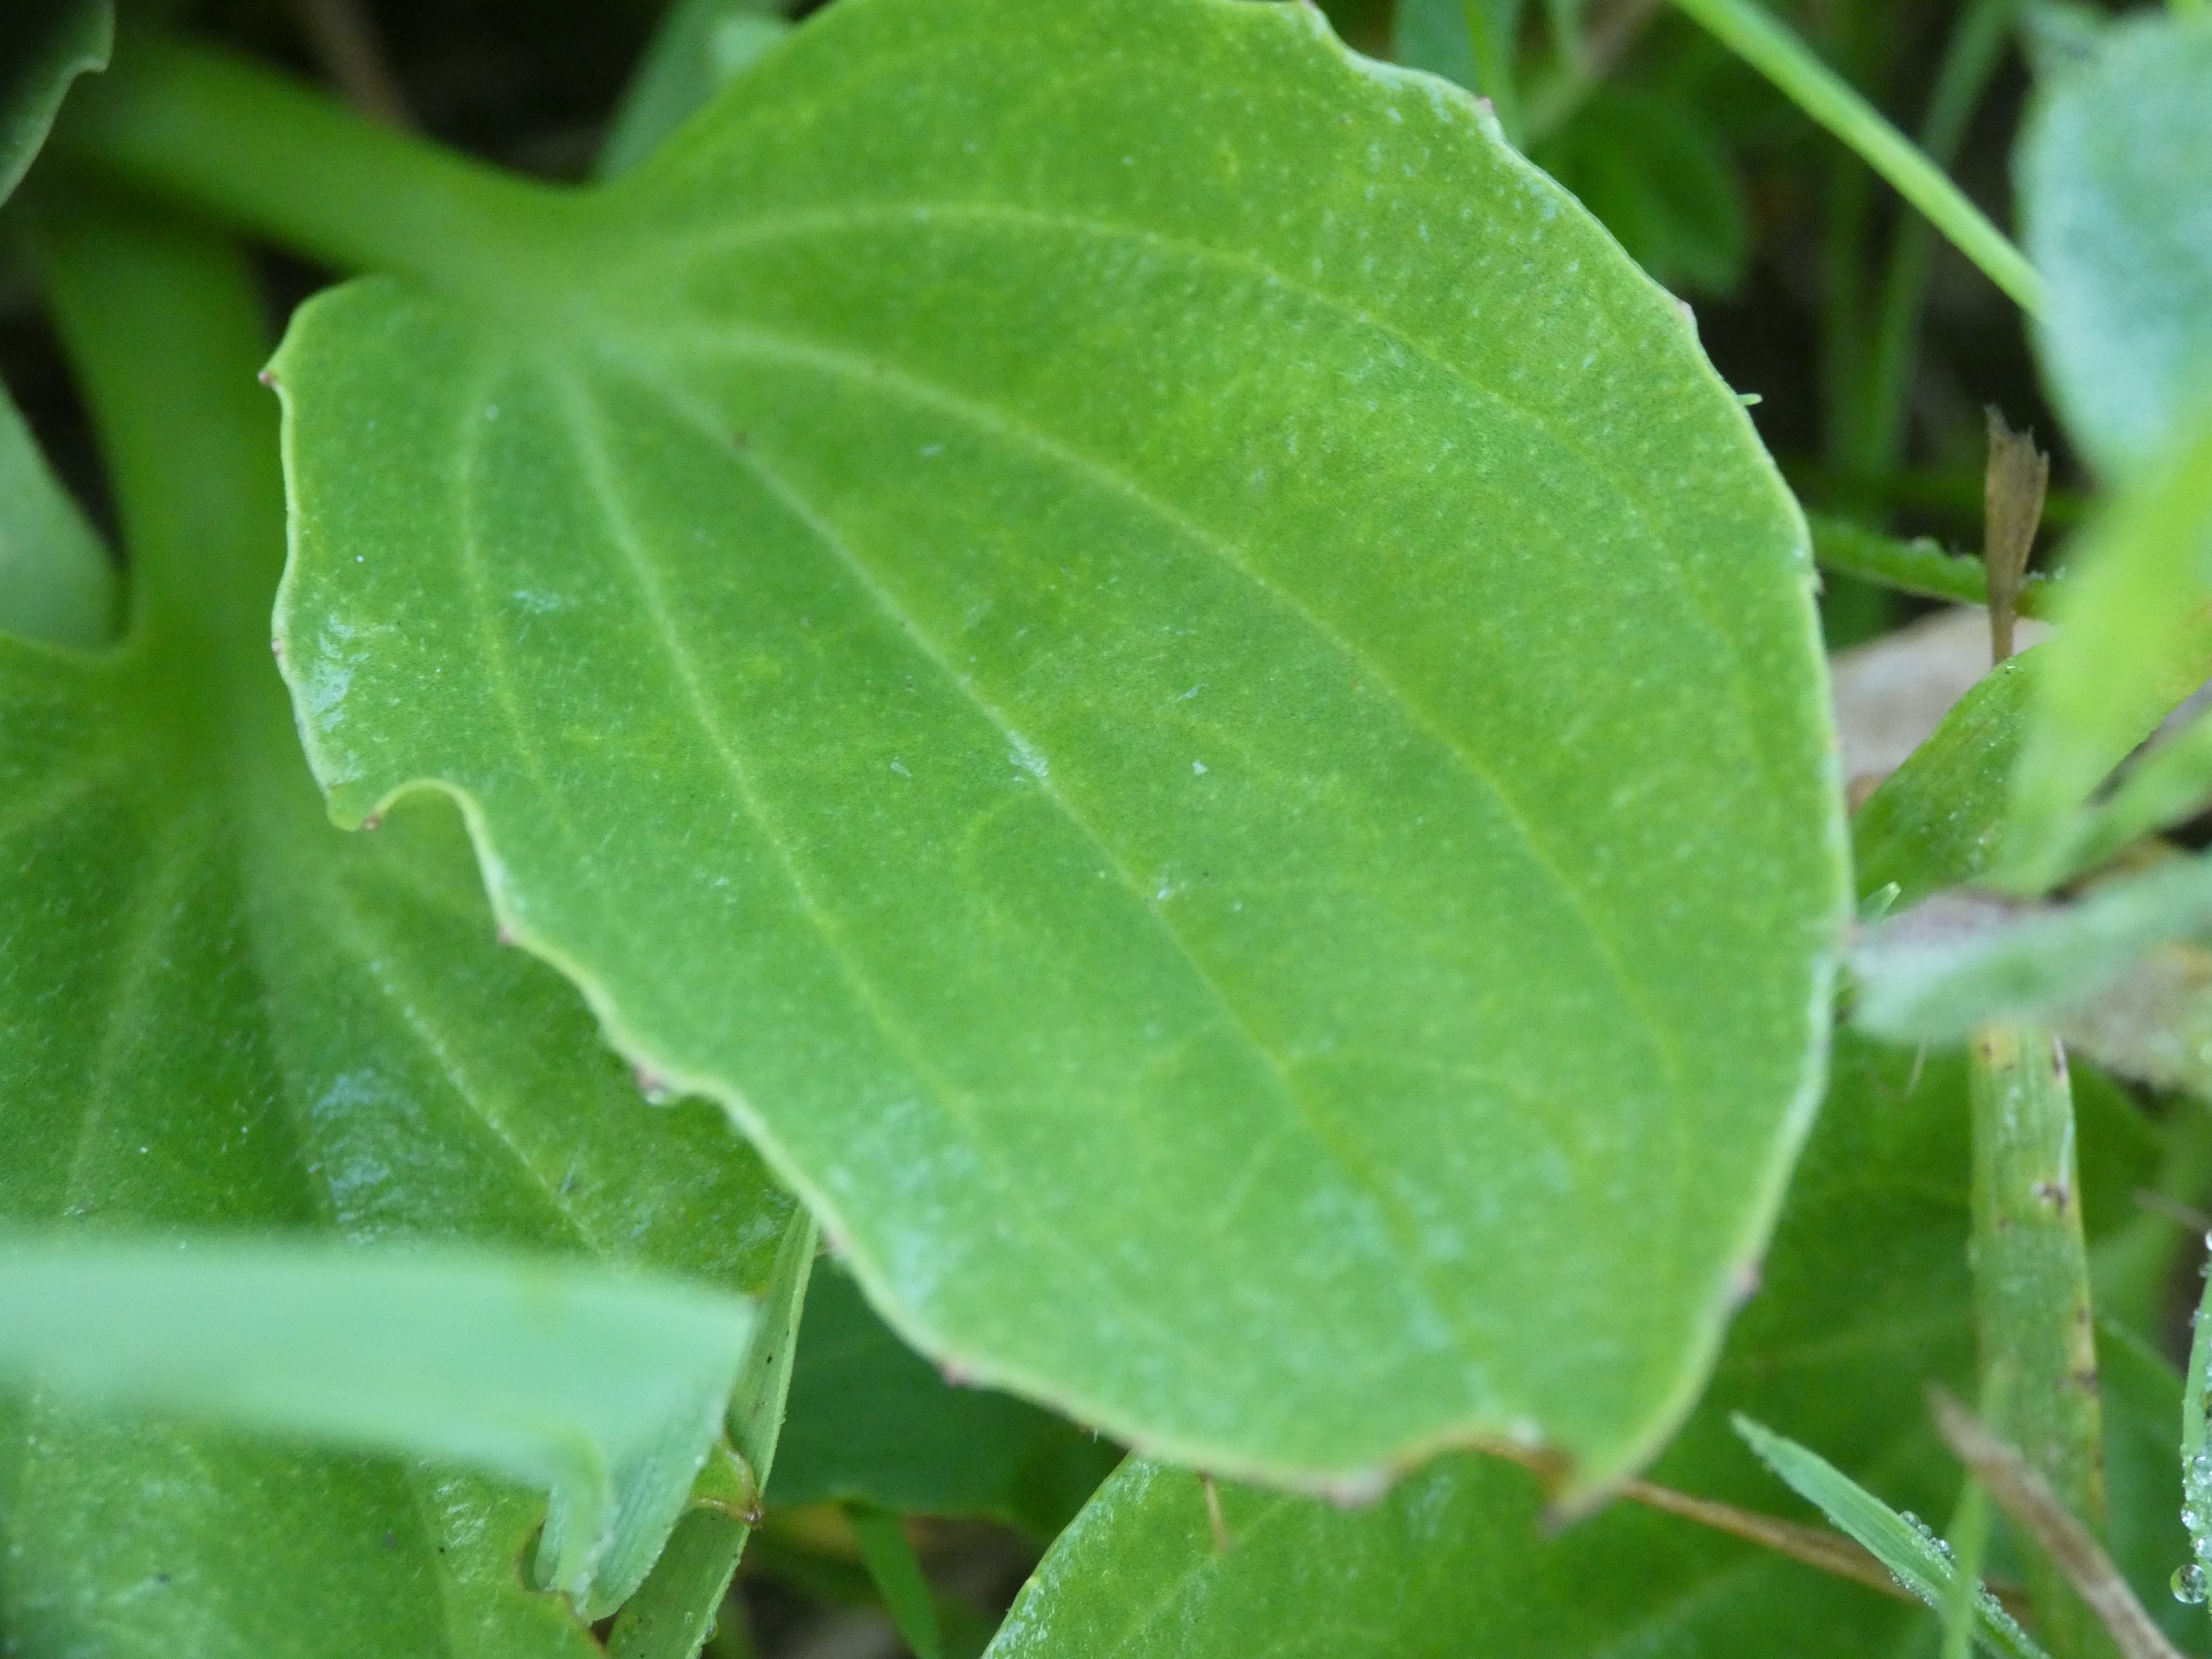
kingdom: Plantae
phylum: Tracheophyta
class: Magnoliopsida
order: Lamiales
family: Plantaginaceae
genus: Plantago
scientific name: Plantago major
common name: Glat vejbred
